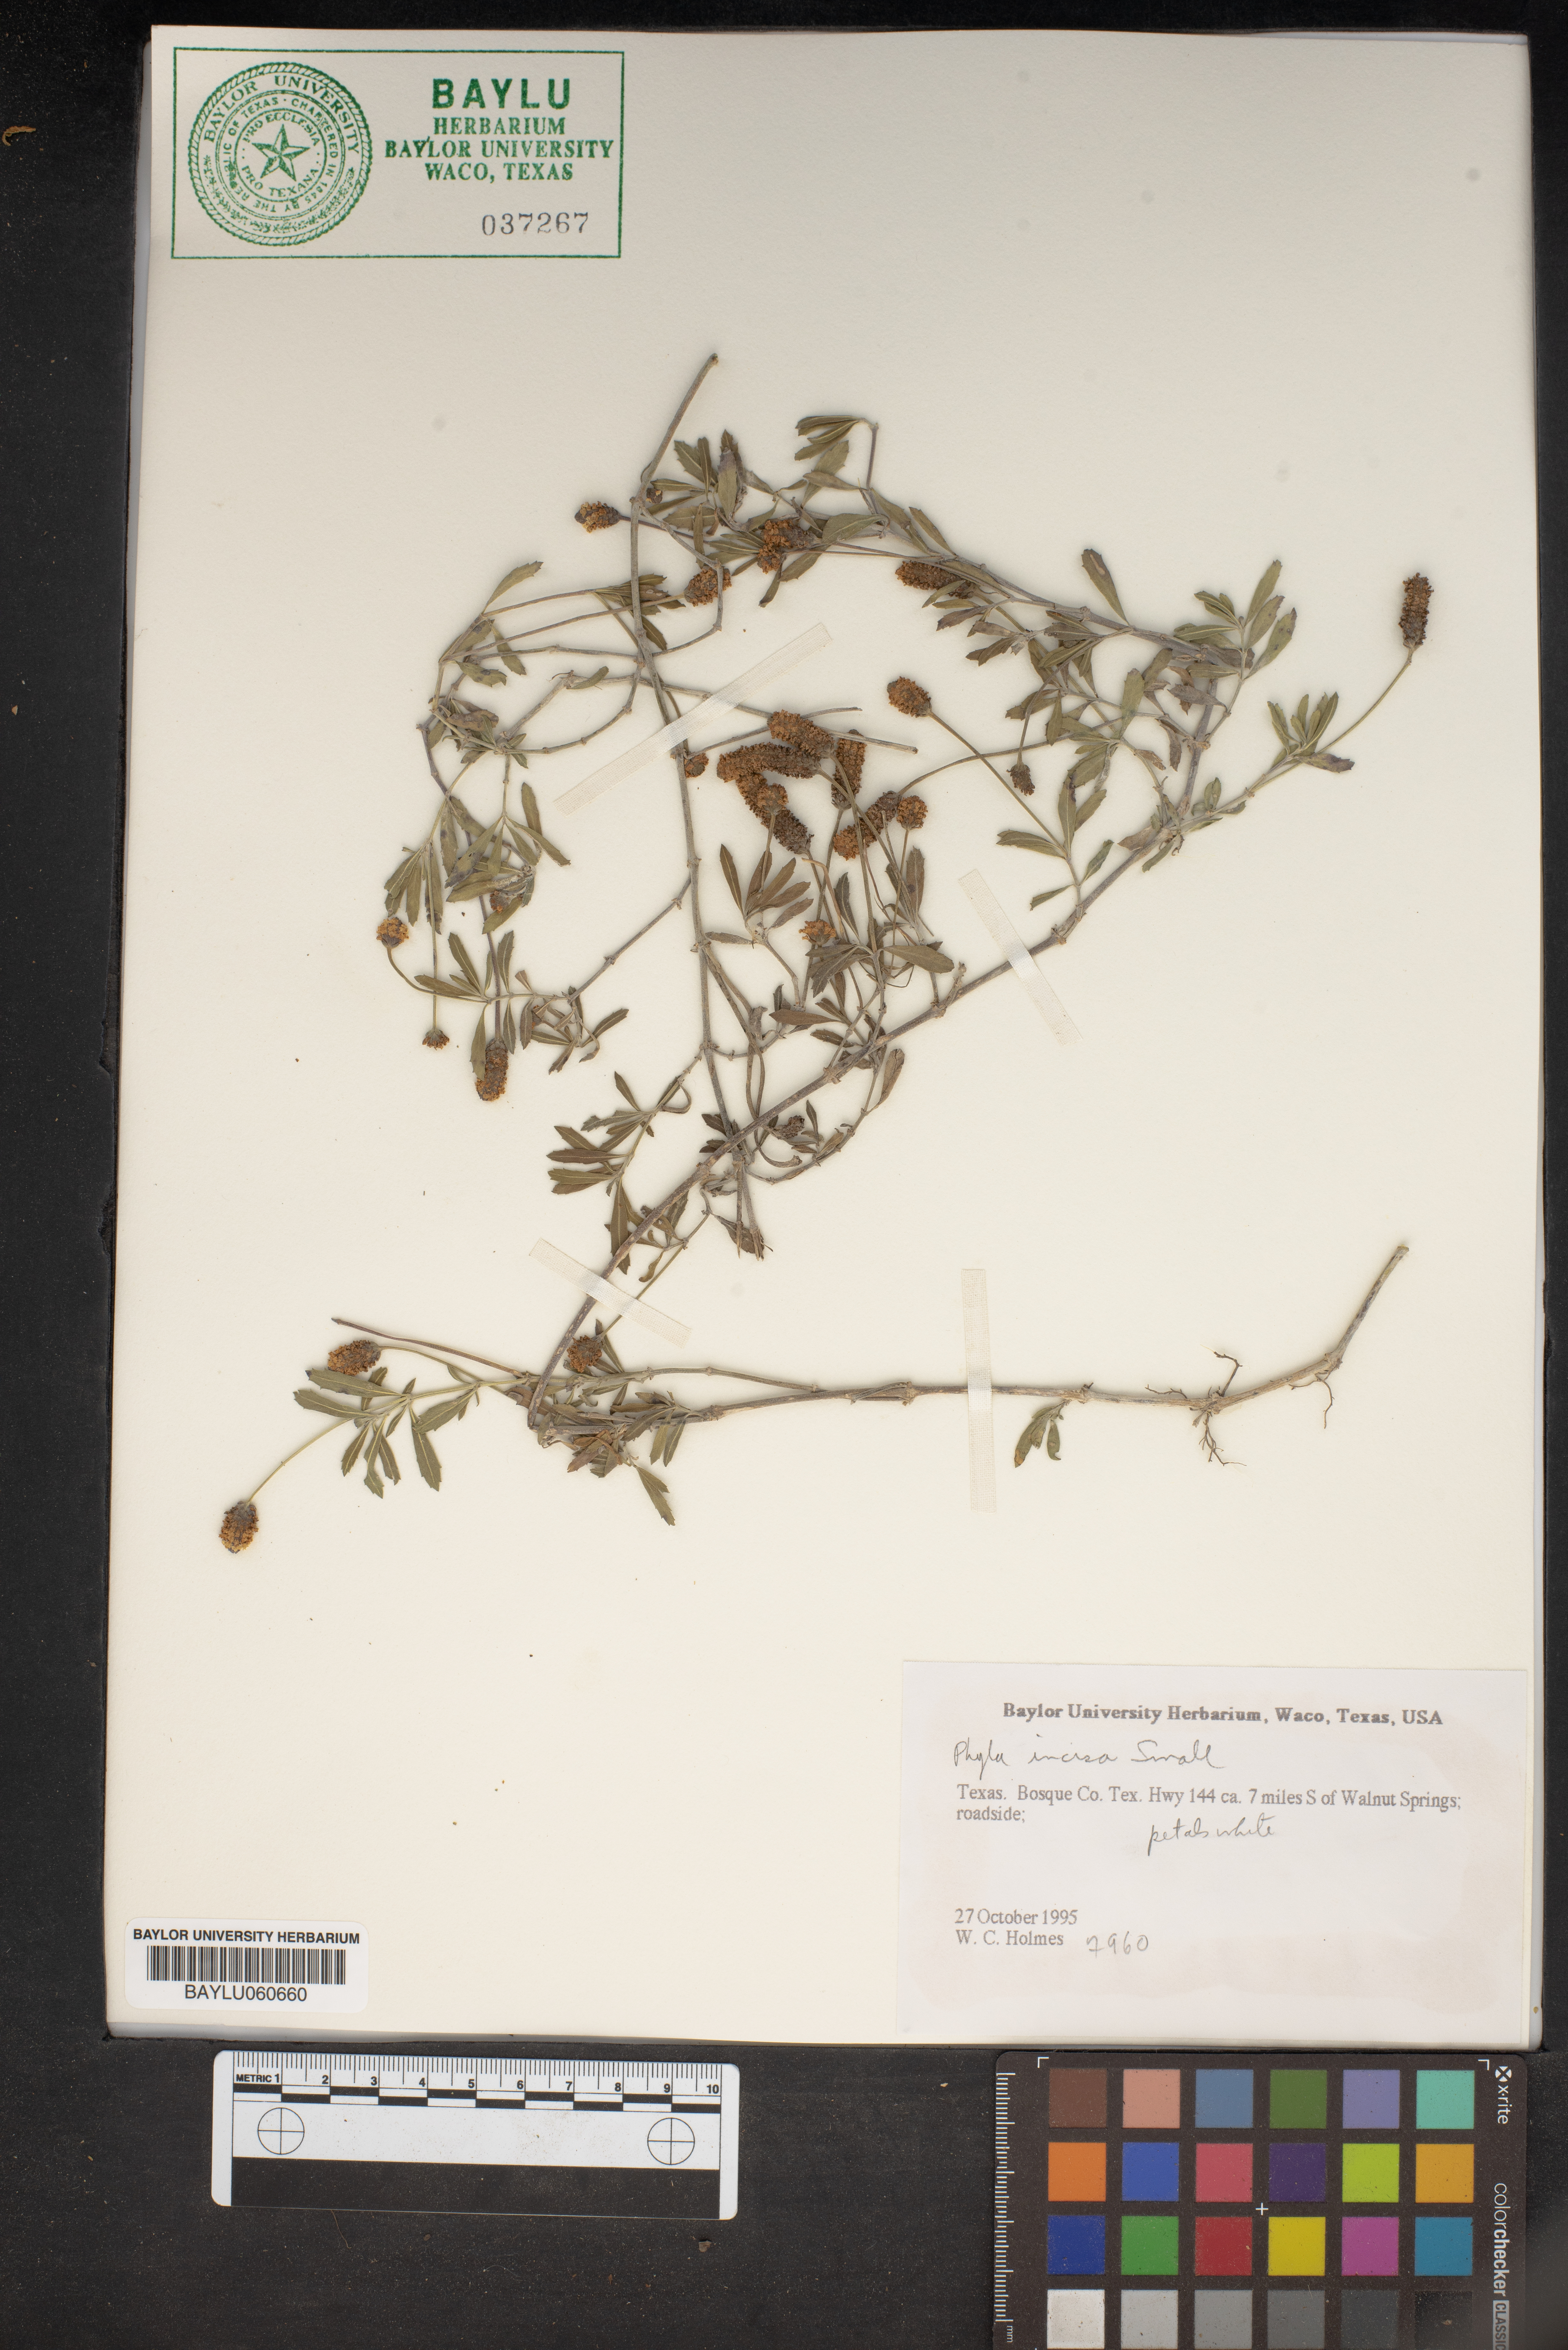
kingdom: Plantae
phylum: Tracheophyta
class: Magnoliopsida
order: Lamiales
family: Verbenaceae
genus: Phyla
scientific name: Phyla nodiflora
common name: Frogfruit
